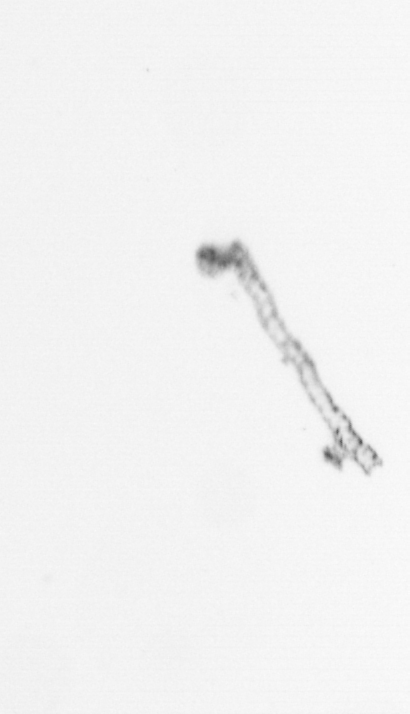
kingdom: Chromista
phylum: Ochrophyta
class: Bacillariophyceae
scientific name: Bacillariophyceae
